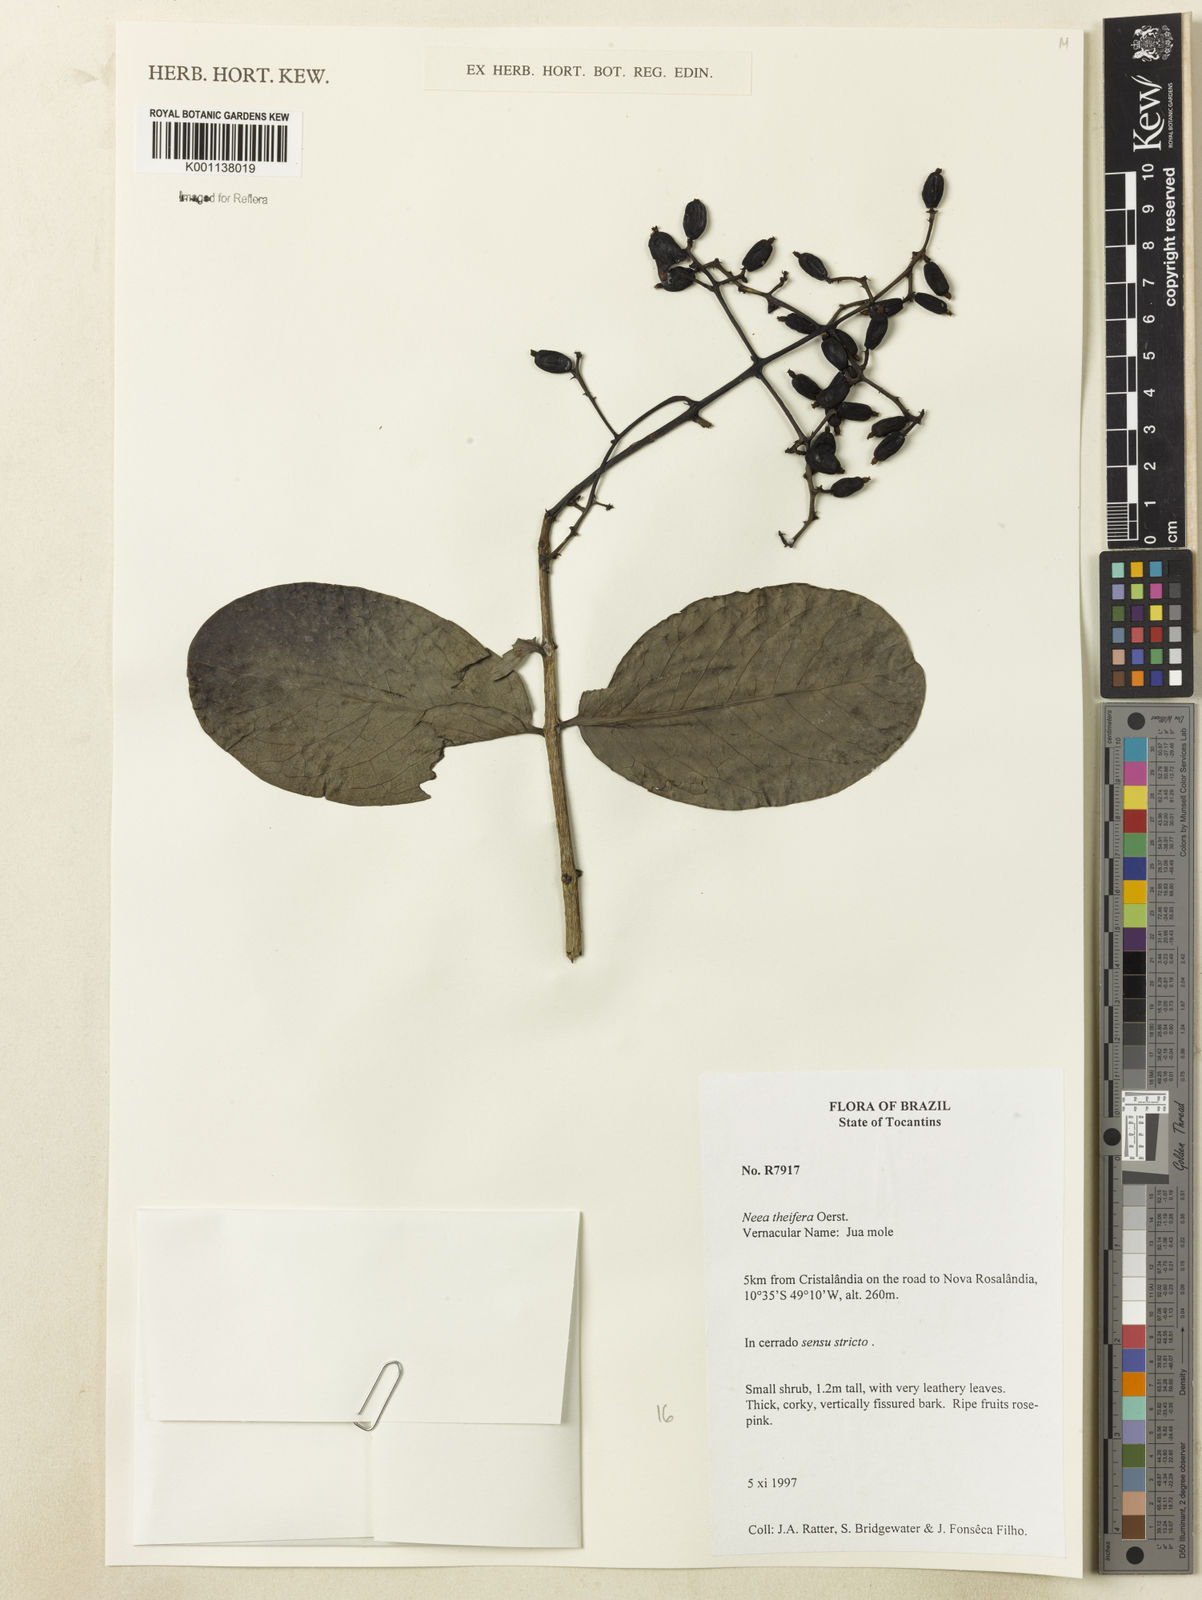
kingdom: Plantae
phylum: Tracheophyta
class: Magnoliopsida
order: Caryophyllales
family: Nyctaginaceae
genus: Neea
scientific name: Neea theifera
